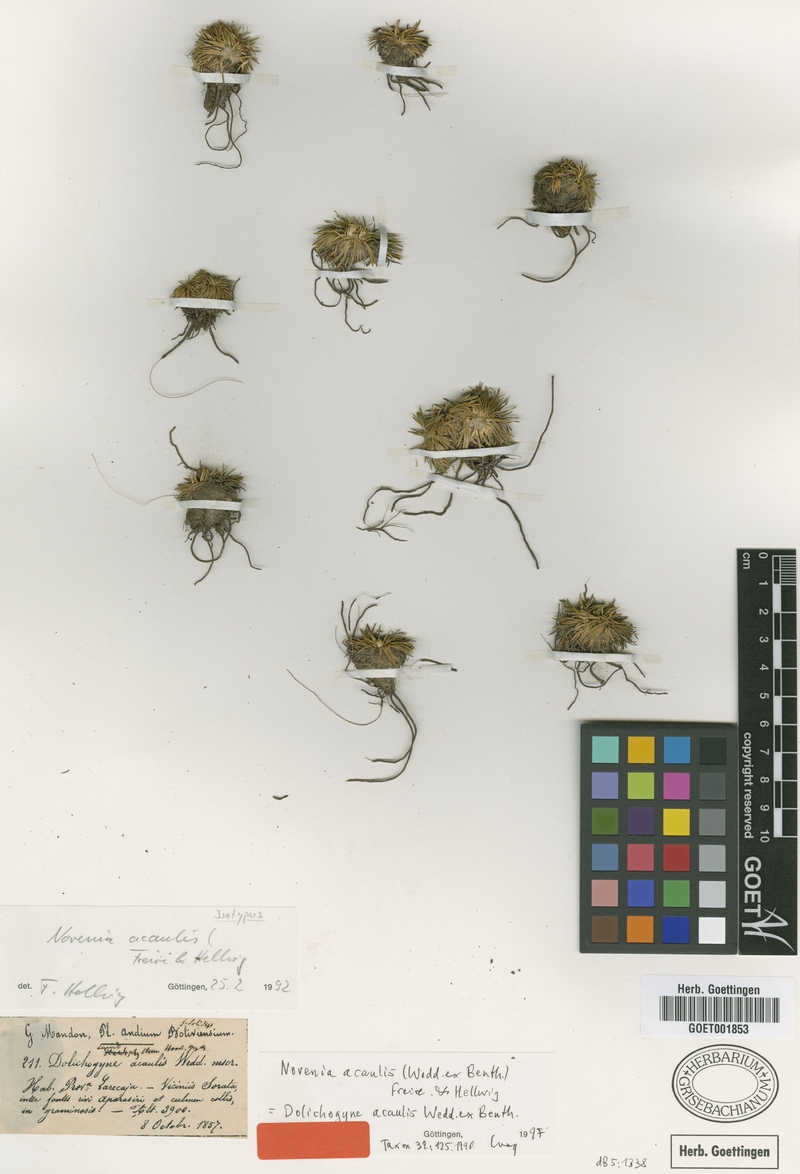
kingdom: Plantae
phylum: Tracheophyta
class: Magnoliopsida
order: Asterales
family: Asteraceae
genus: Novenia
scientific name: Novenia tunariensis
